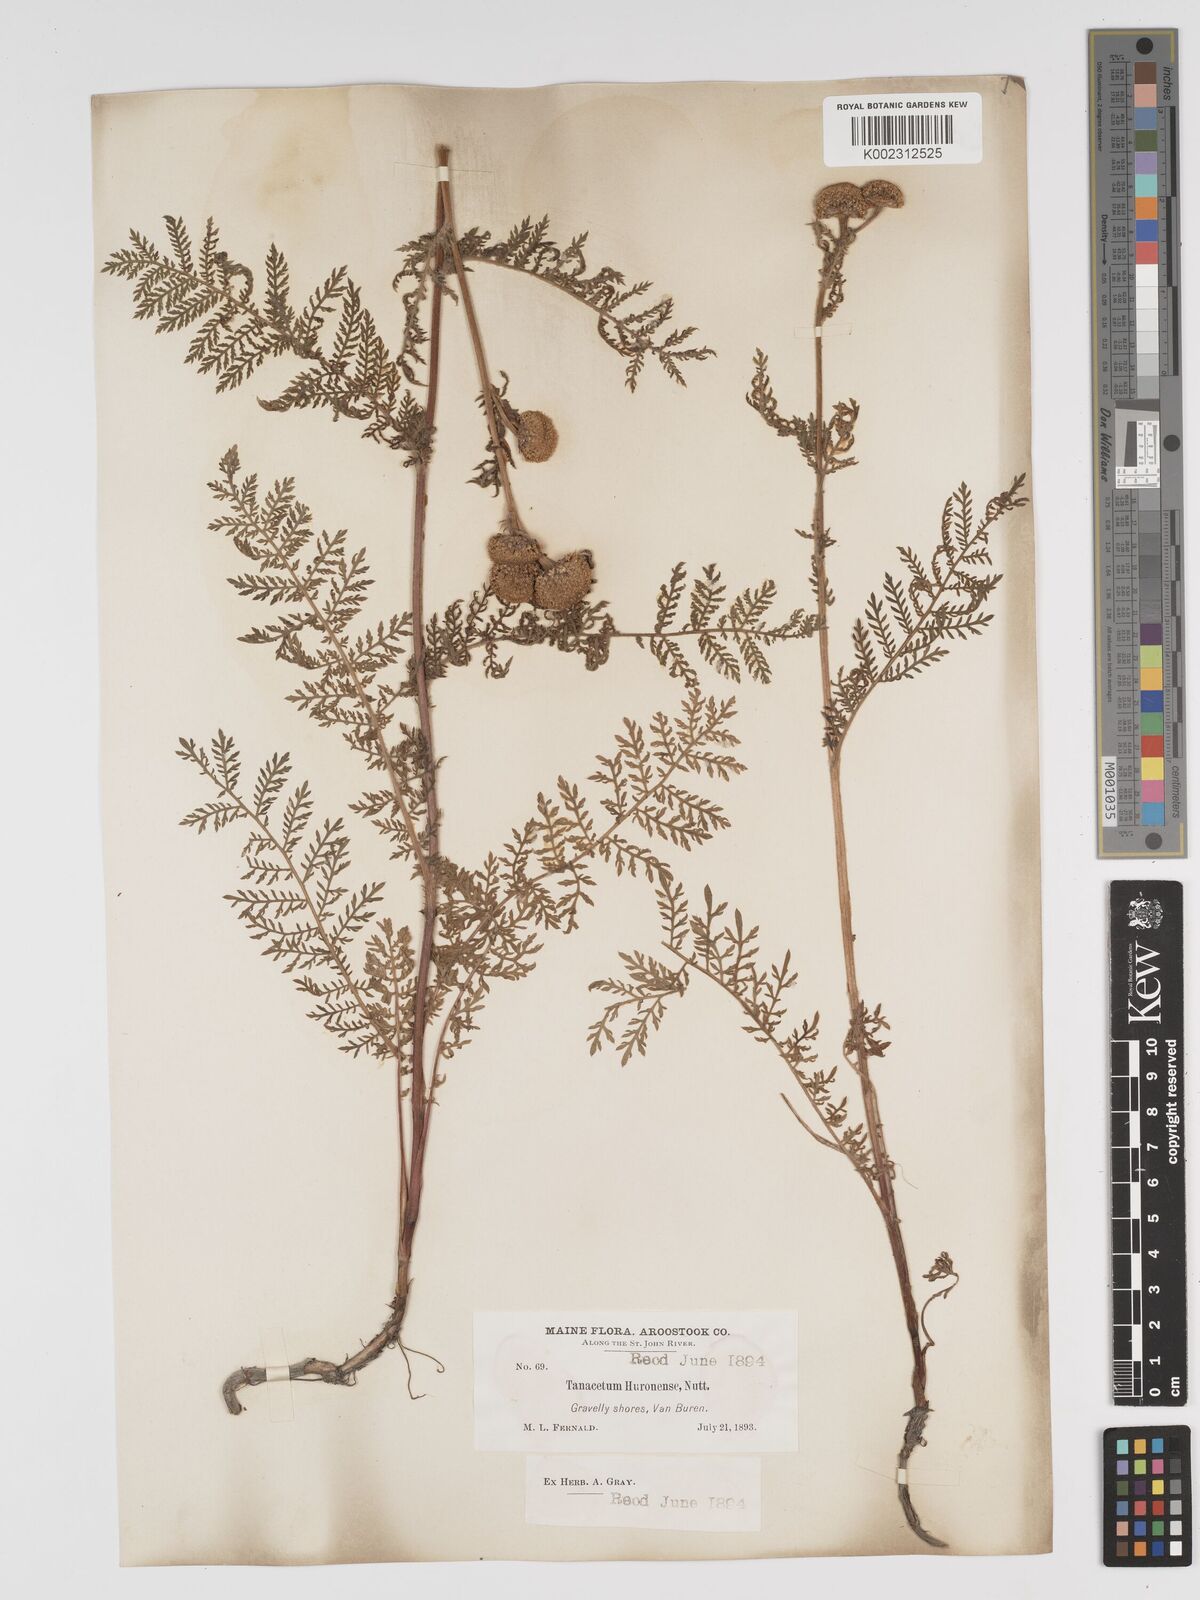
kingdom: Plantae
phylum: Tracheophyta
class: Magnoliopsida
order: Asterales
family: Asteraceae
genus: Tanacetum
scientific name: Tanacetum bipinnatum
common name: Dwarf tansy
